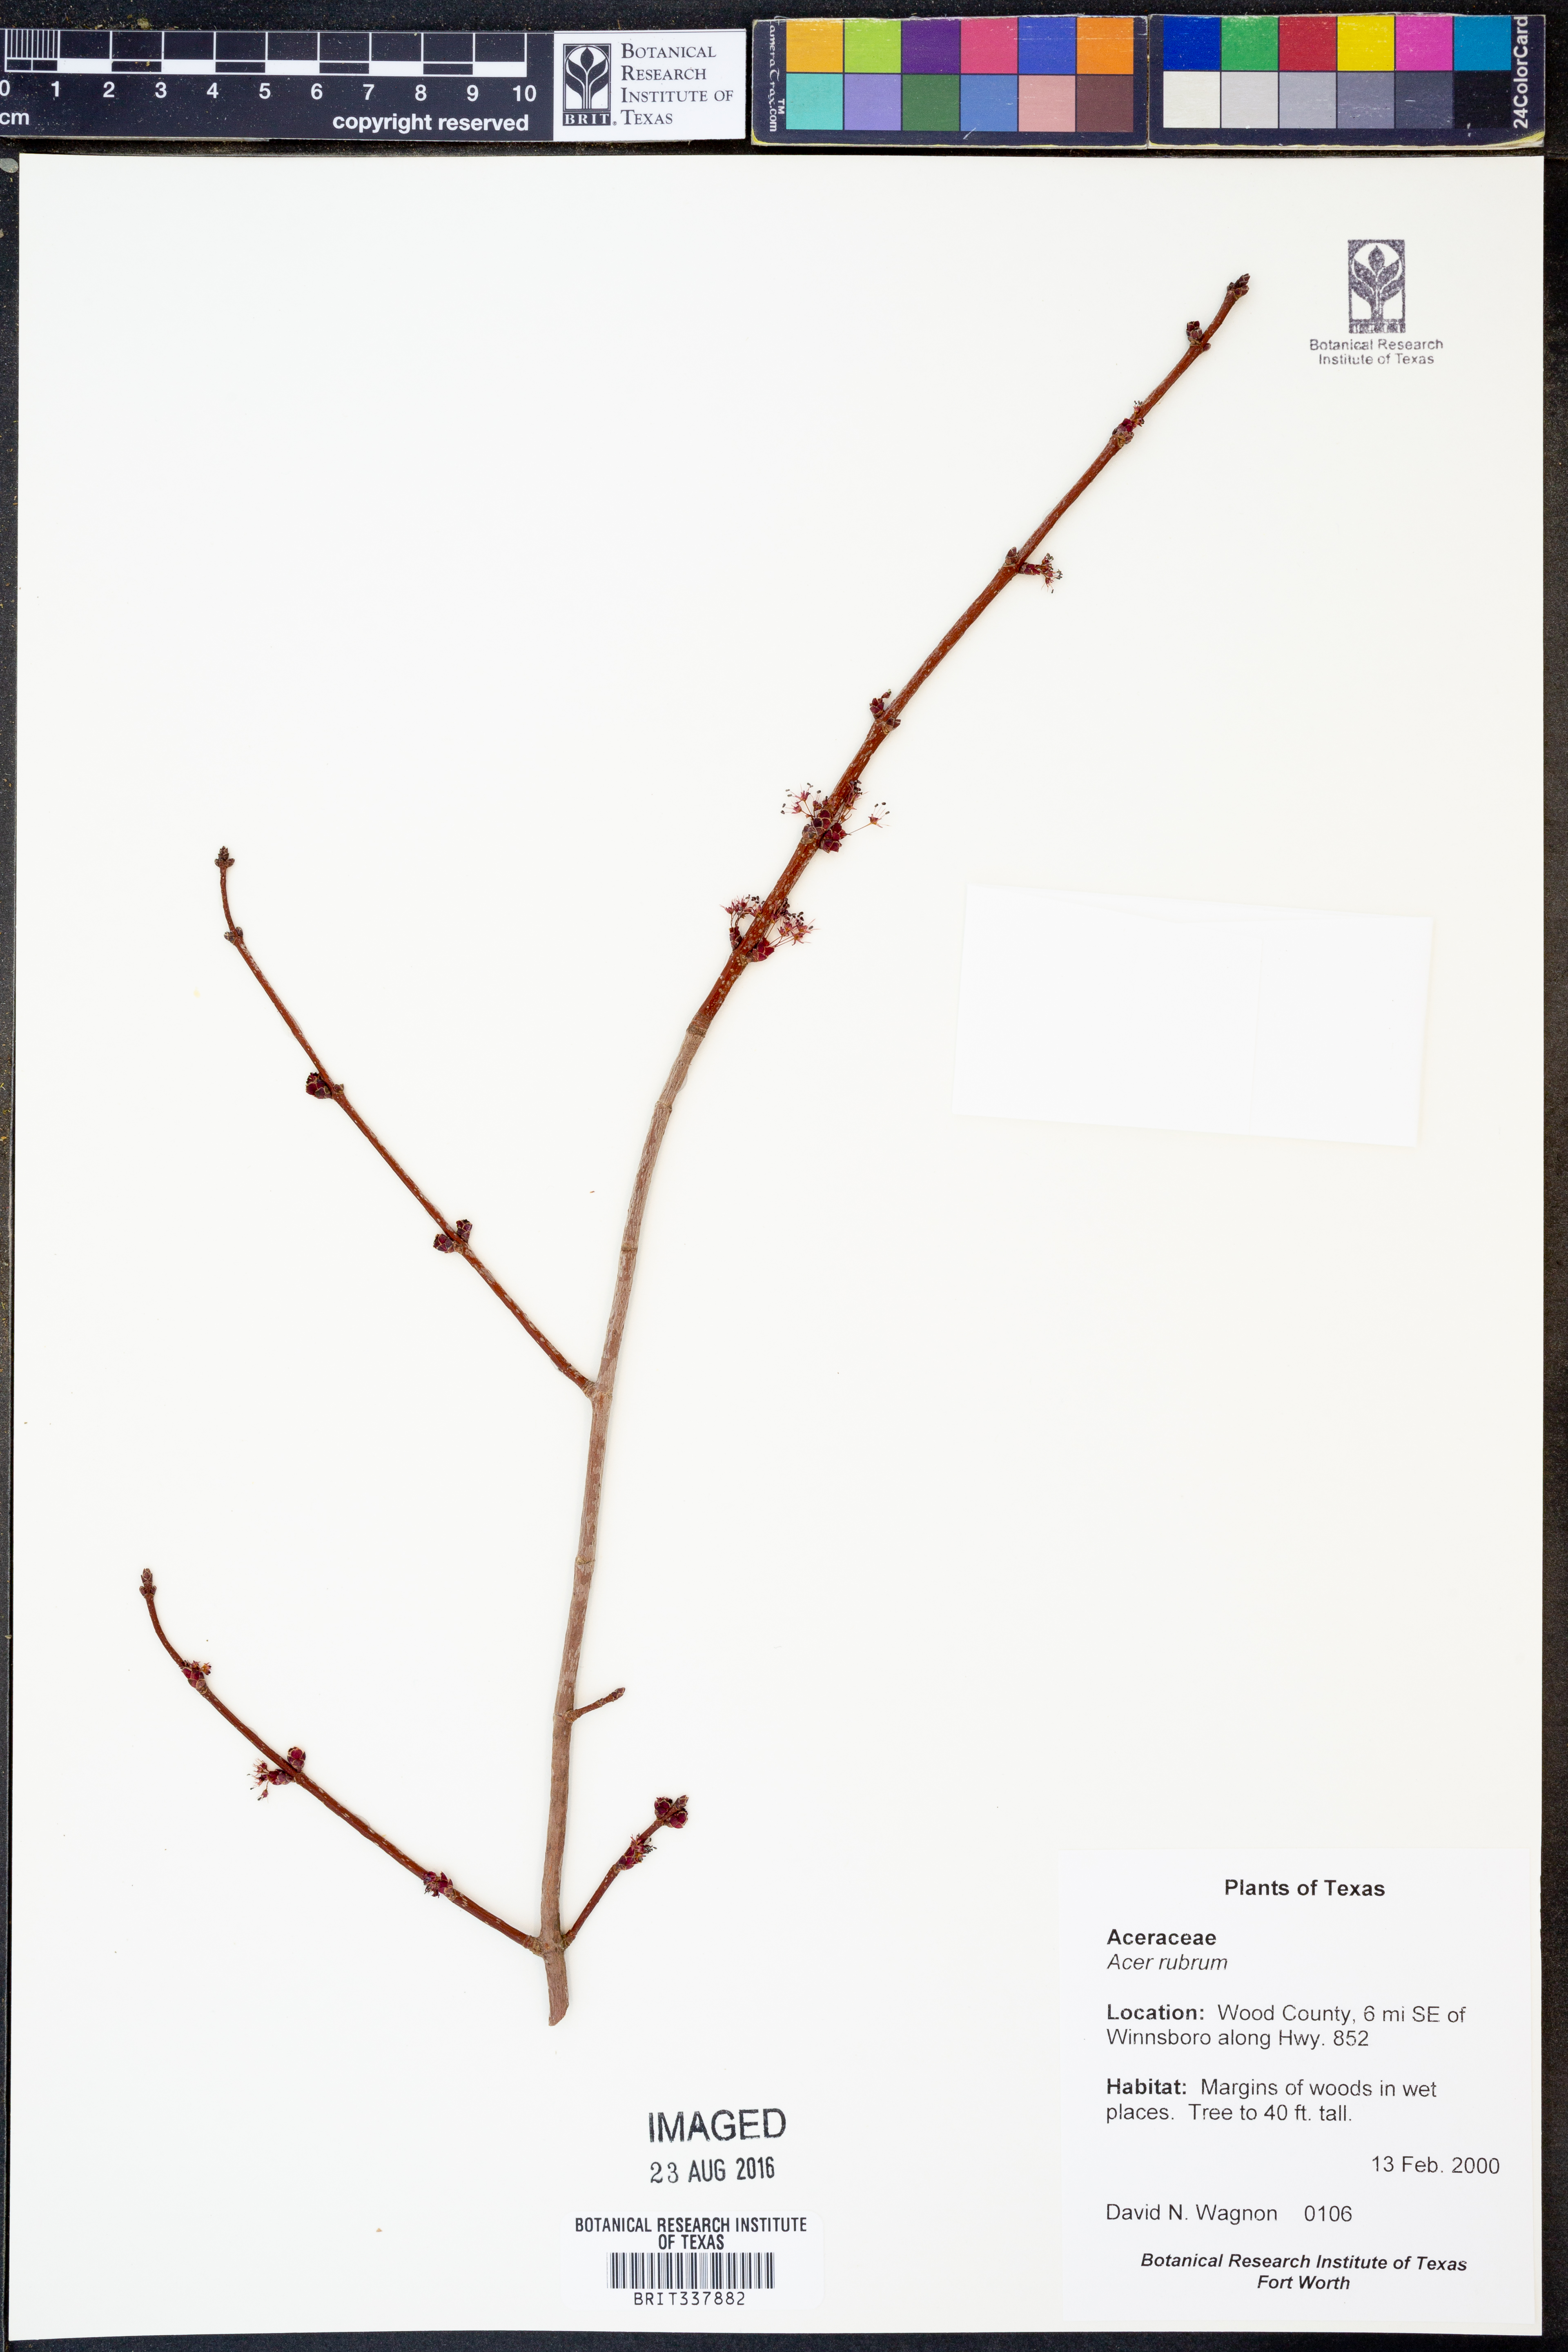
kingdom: Plantae
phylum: Tracheophyta
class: Magnoliopsida
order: Sapindales
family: Sapindaceae
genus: Acer
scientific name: Acer rubrum
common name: Red maple
